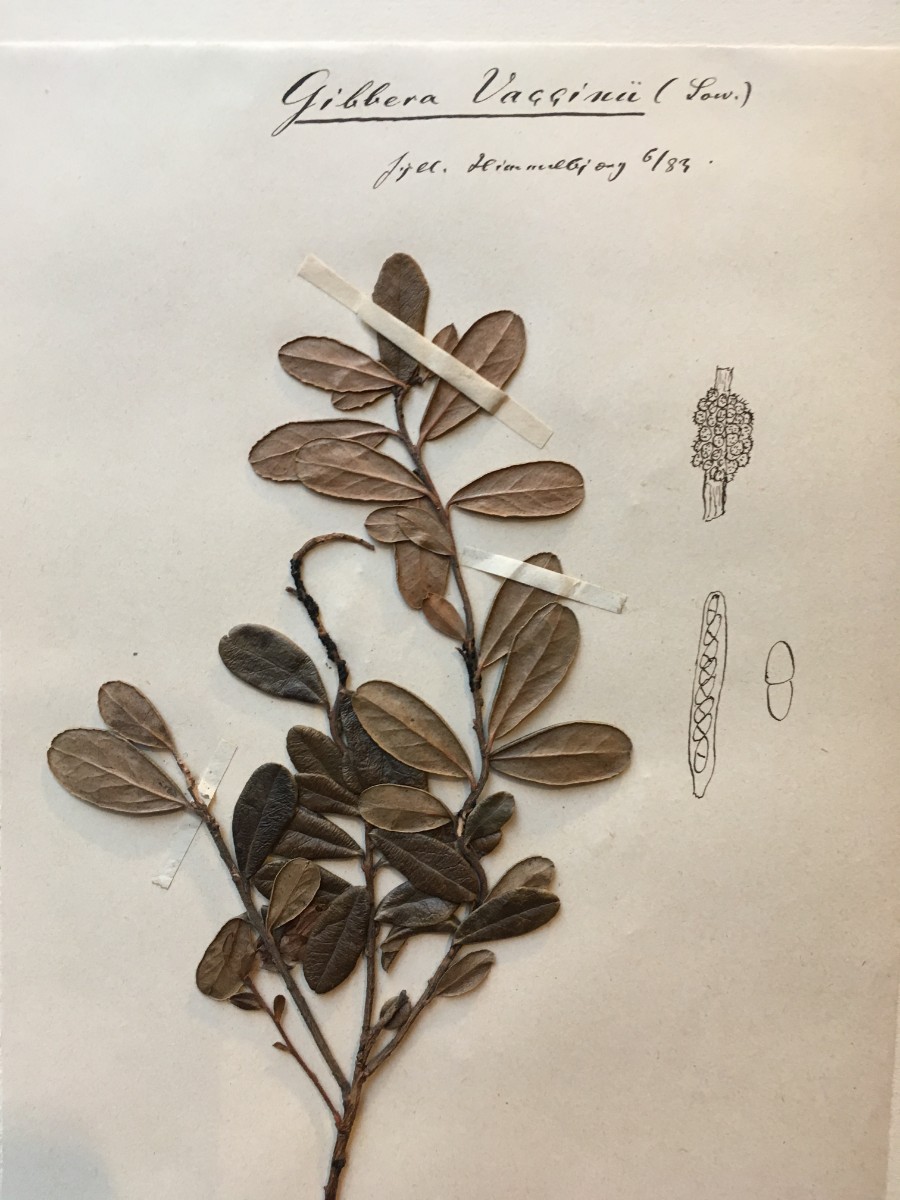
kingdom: Fungi
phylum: Ascomycota
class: Dothideomycetes
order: Venturiales
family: Venturiaceae
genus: Gibbera
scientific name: Gibbera vaccinii
